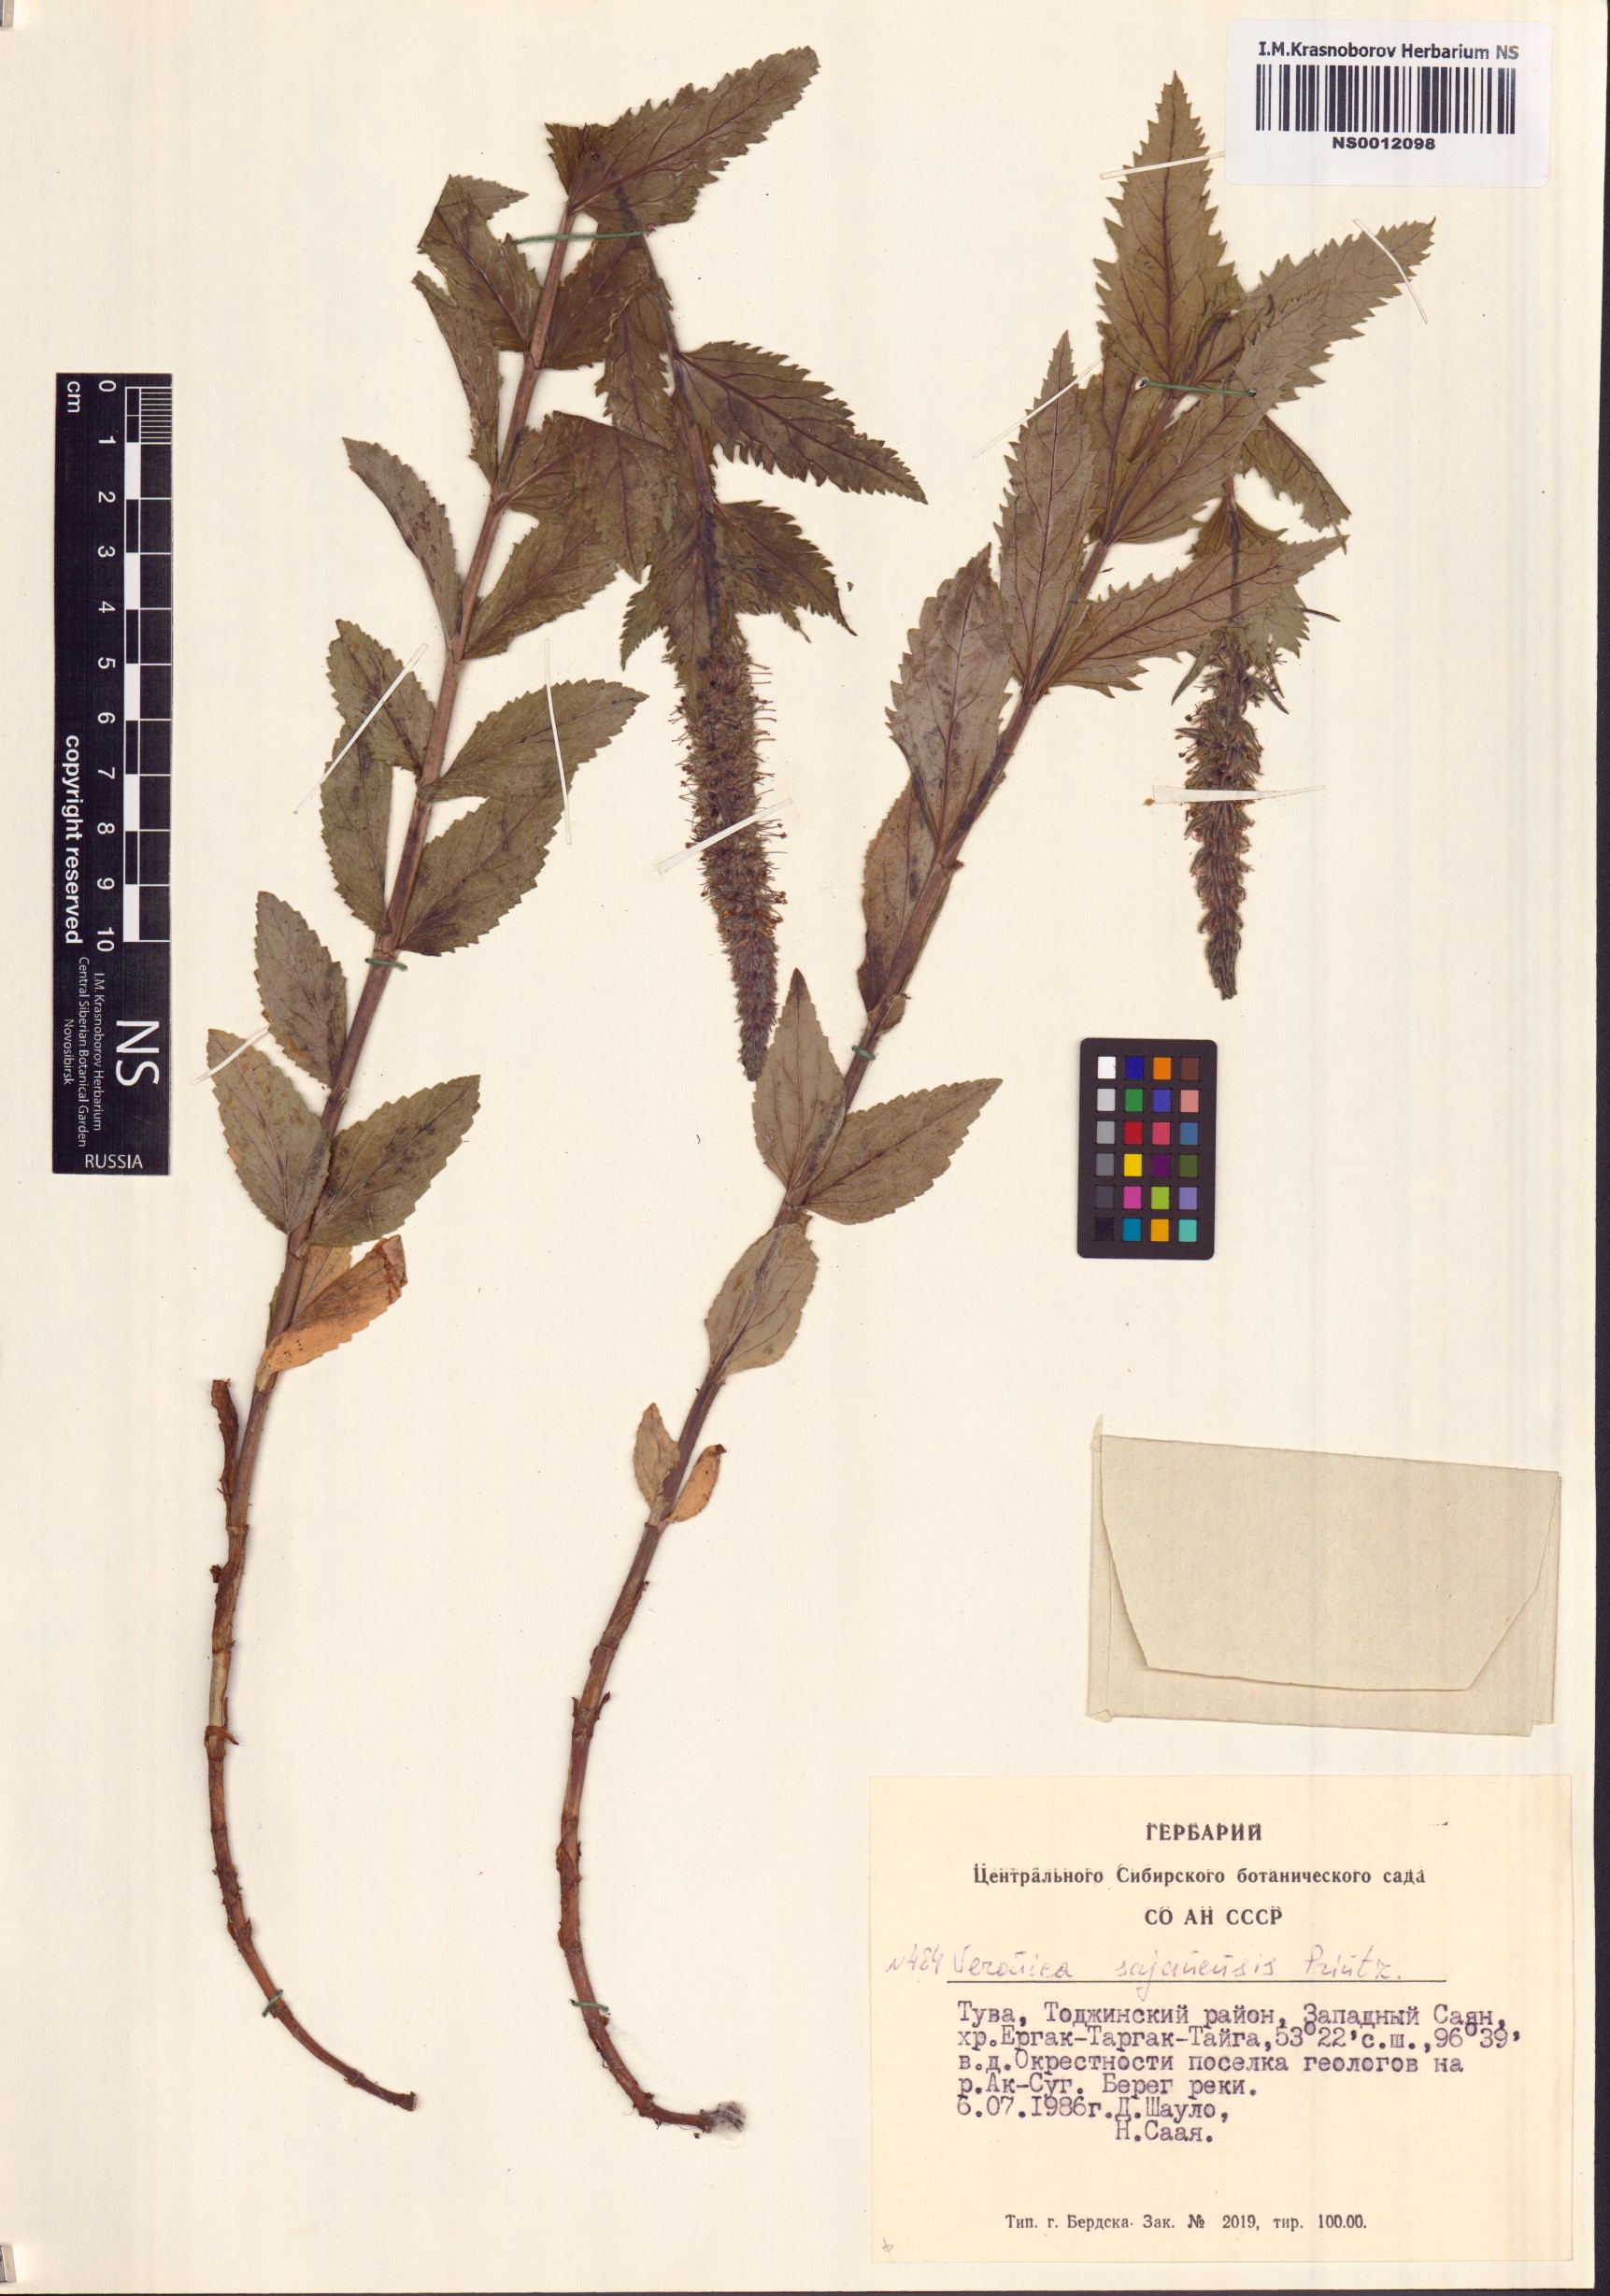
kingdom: Plantae
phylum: Tracheophyta
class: Magnoliopsida
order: Lamiales
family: Plantaginaceae
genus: Veronica
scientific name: Veronica sajanensis
